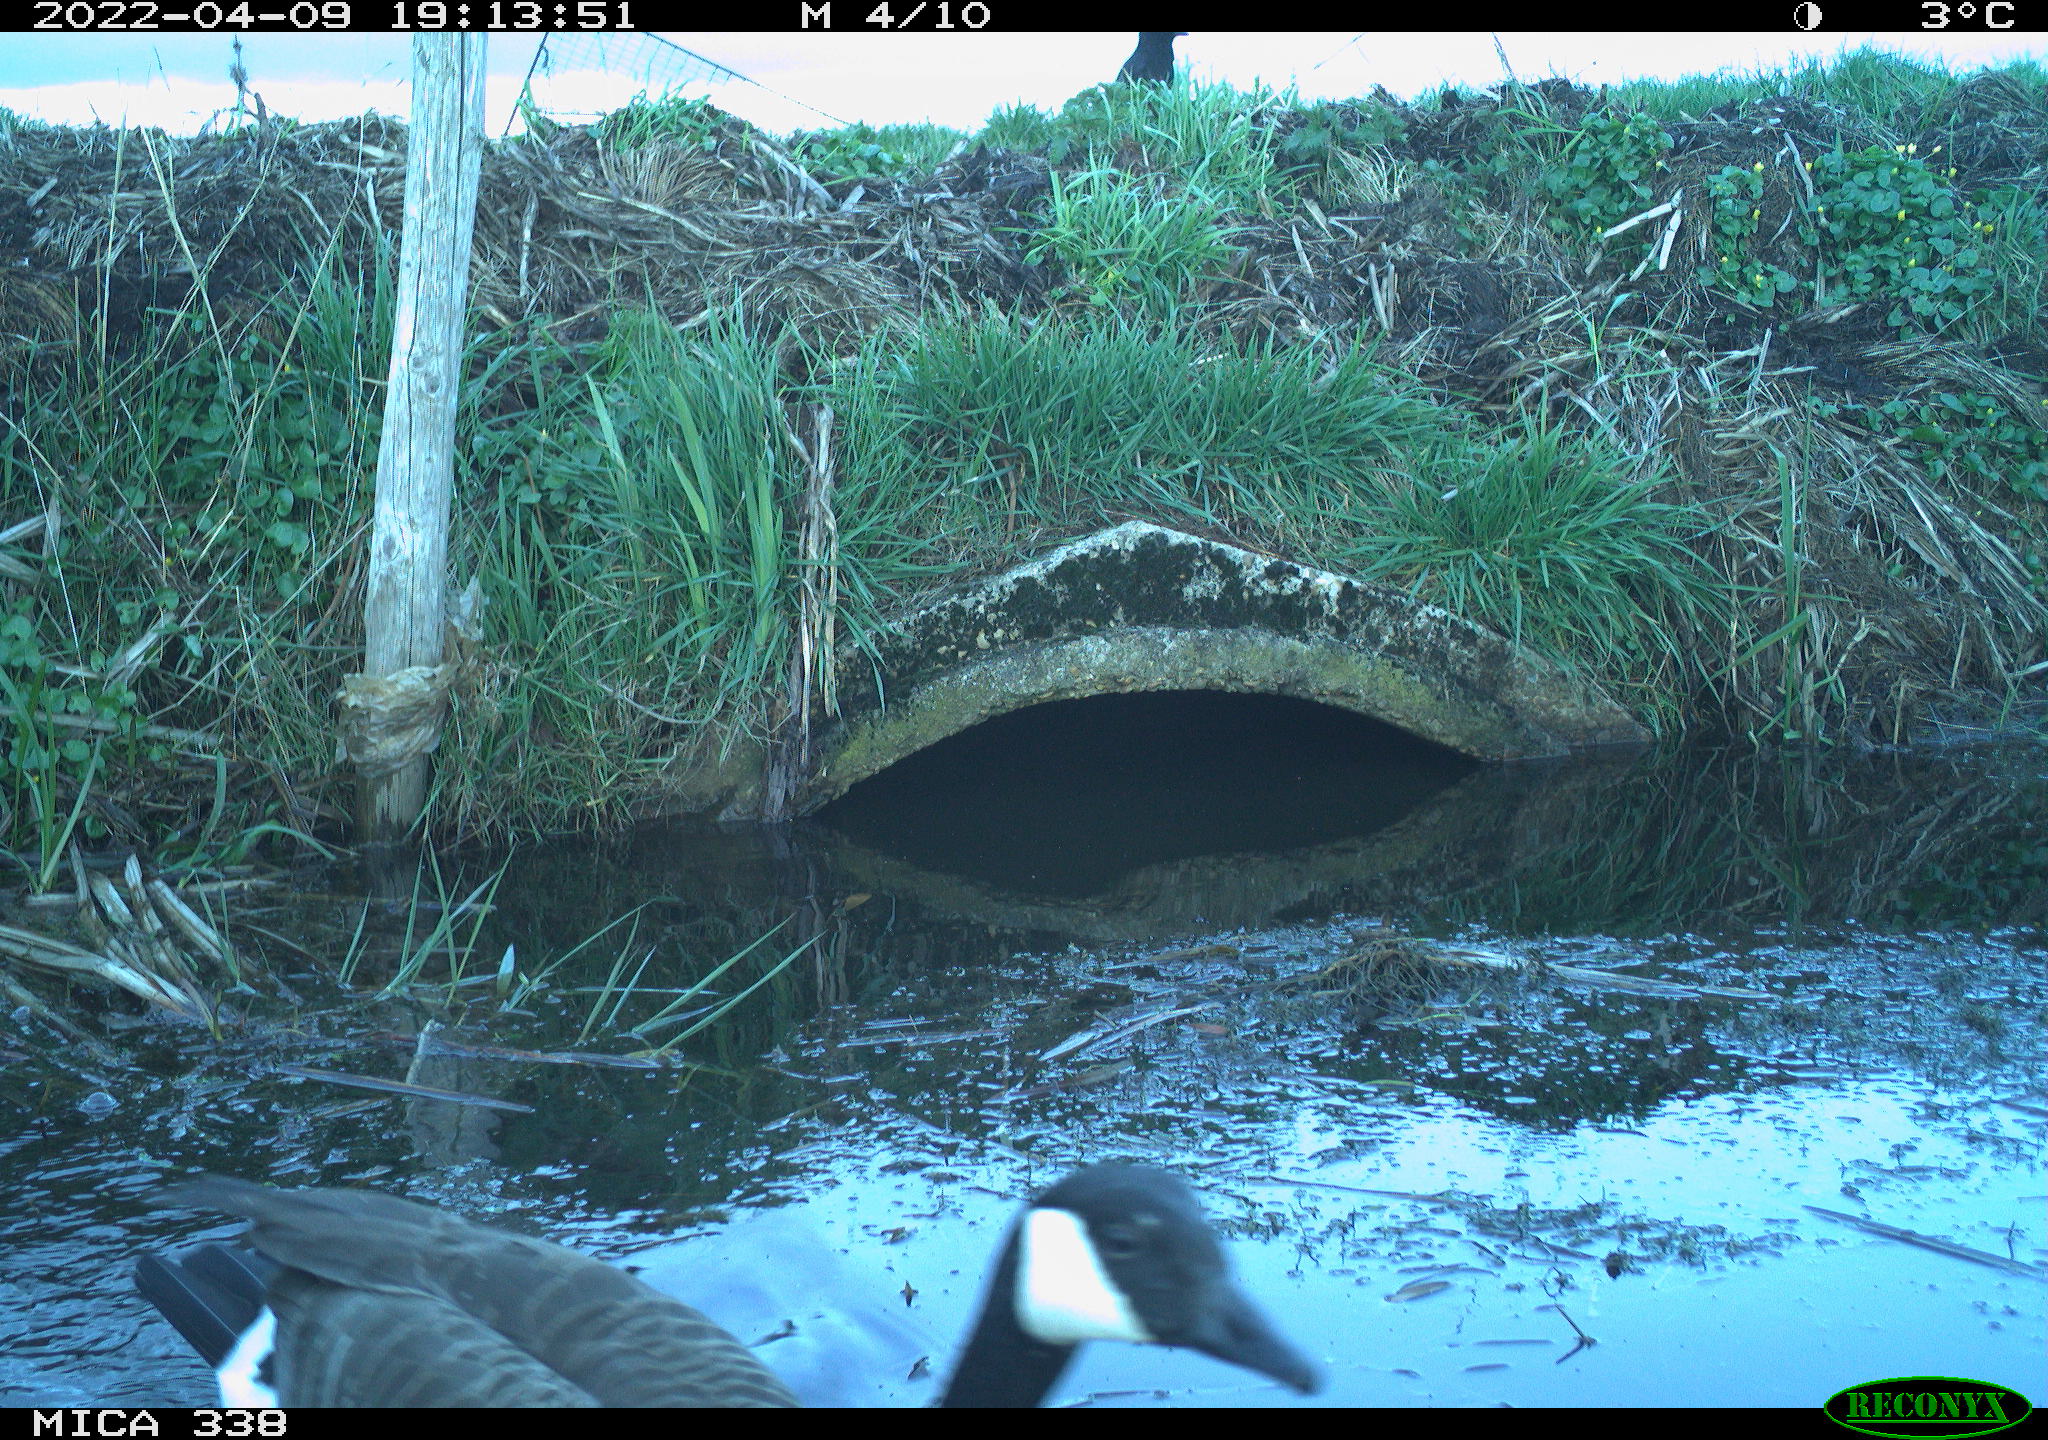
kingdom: Animalia
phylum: Chordata
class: Aves
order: Anseriformes
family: Anatidae
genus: Branta
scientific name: Branta canadensis
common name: Canada goose
